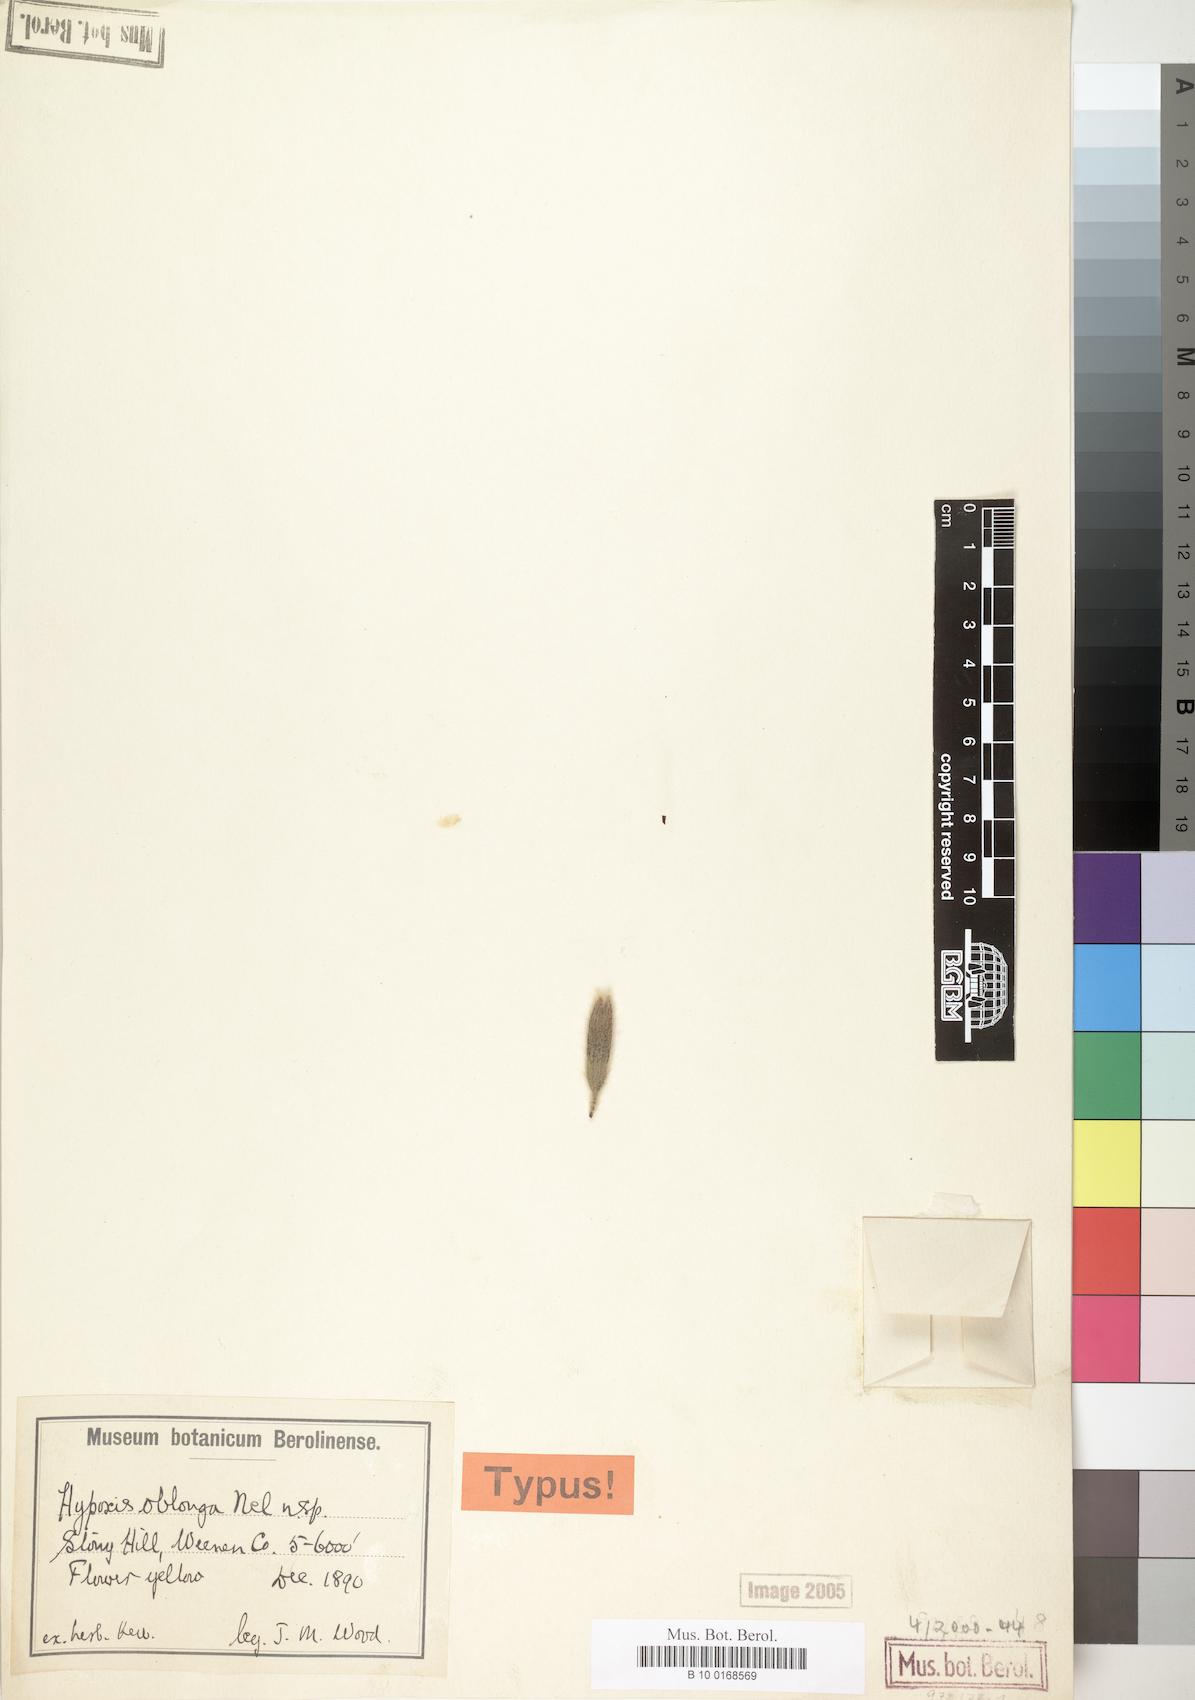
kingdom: Plantae
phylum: Tracheophyta
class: Liliopsida
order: Asparagales
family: Hypoxidaceae
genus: Hypoxis
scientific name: Hypoxis oblonga
